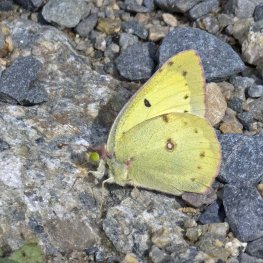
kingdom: Animalia
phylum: Arthropoda
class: Insecta
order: Lepidoptera
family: Pieridae
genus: Colias
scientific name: Colias philodice
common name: Clouded Sulphur
